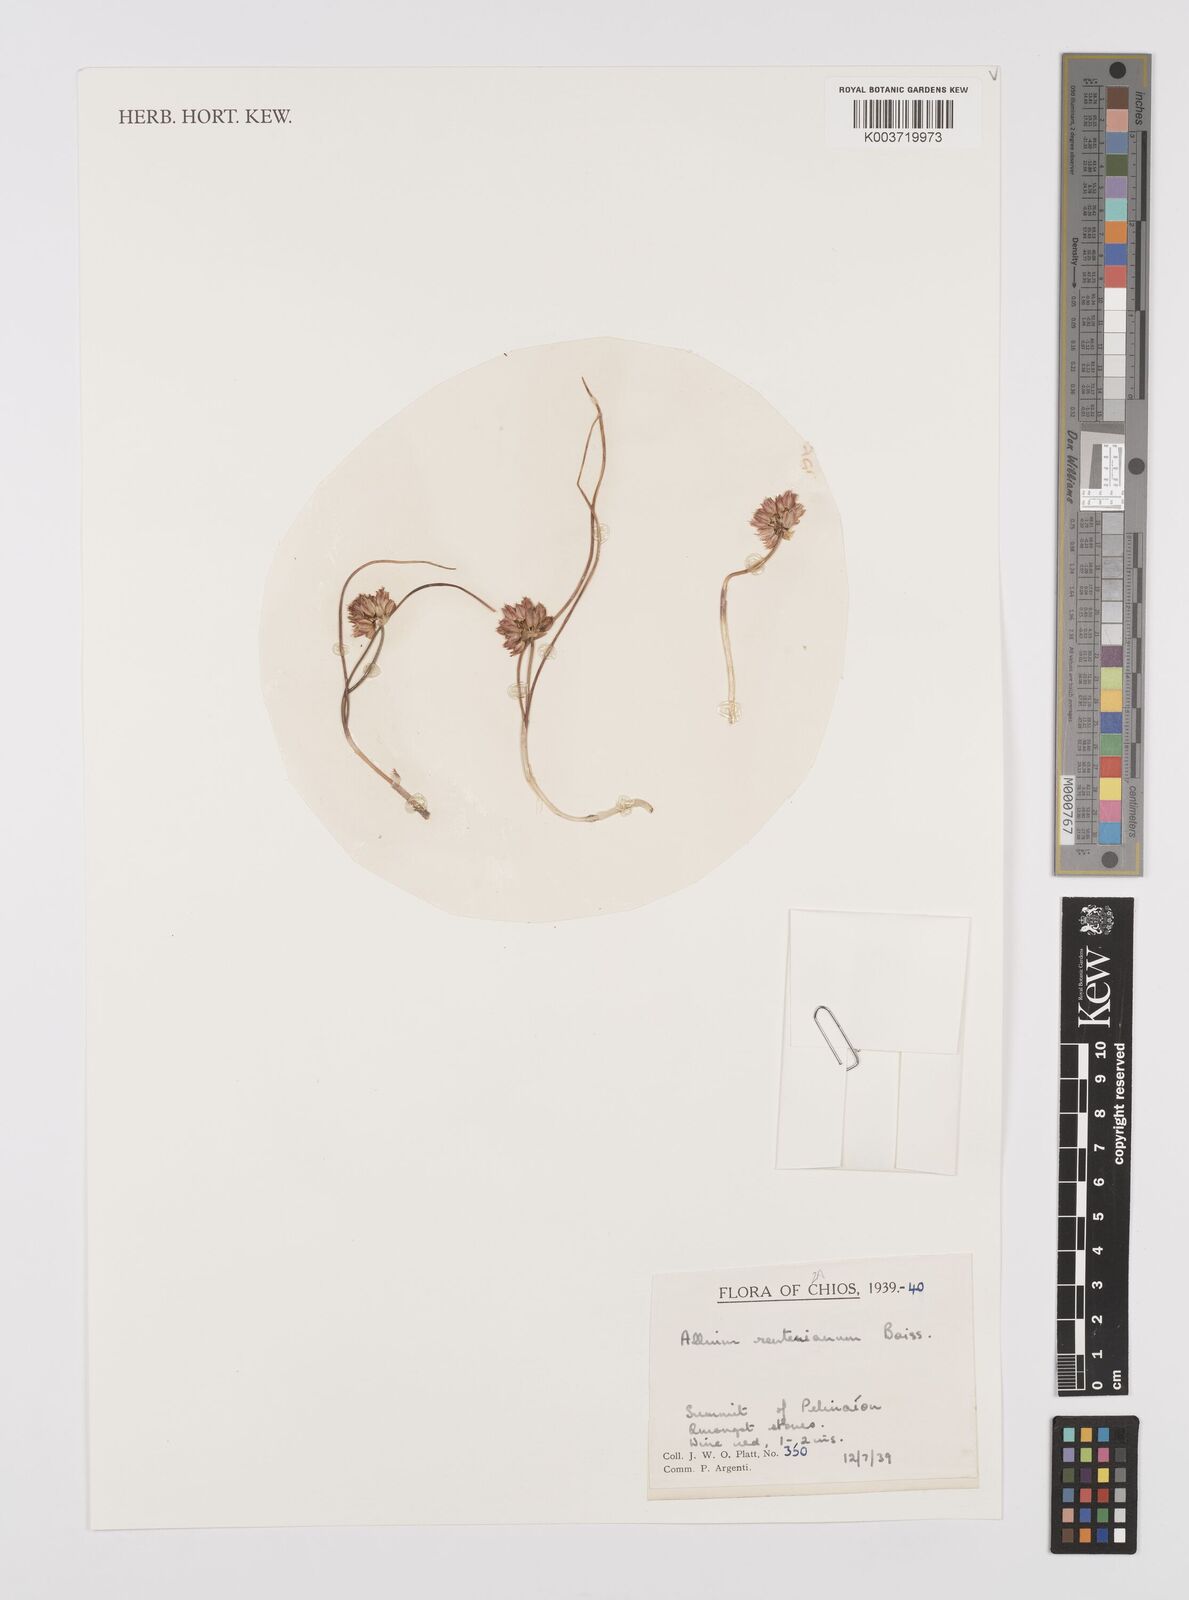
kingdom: Plantae
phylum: Tracheophyta
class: Liliopsida
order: Asparagales
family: Amaryllidaceae
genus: Allium
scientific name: Allium reuterianum
